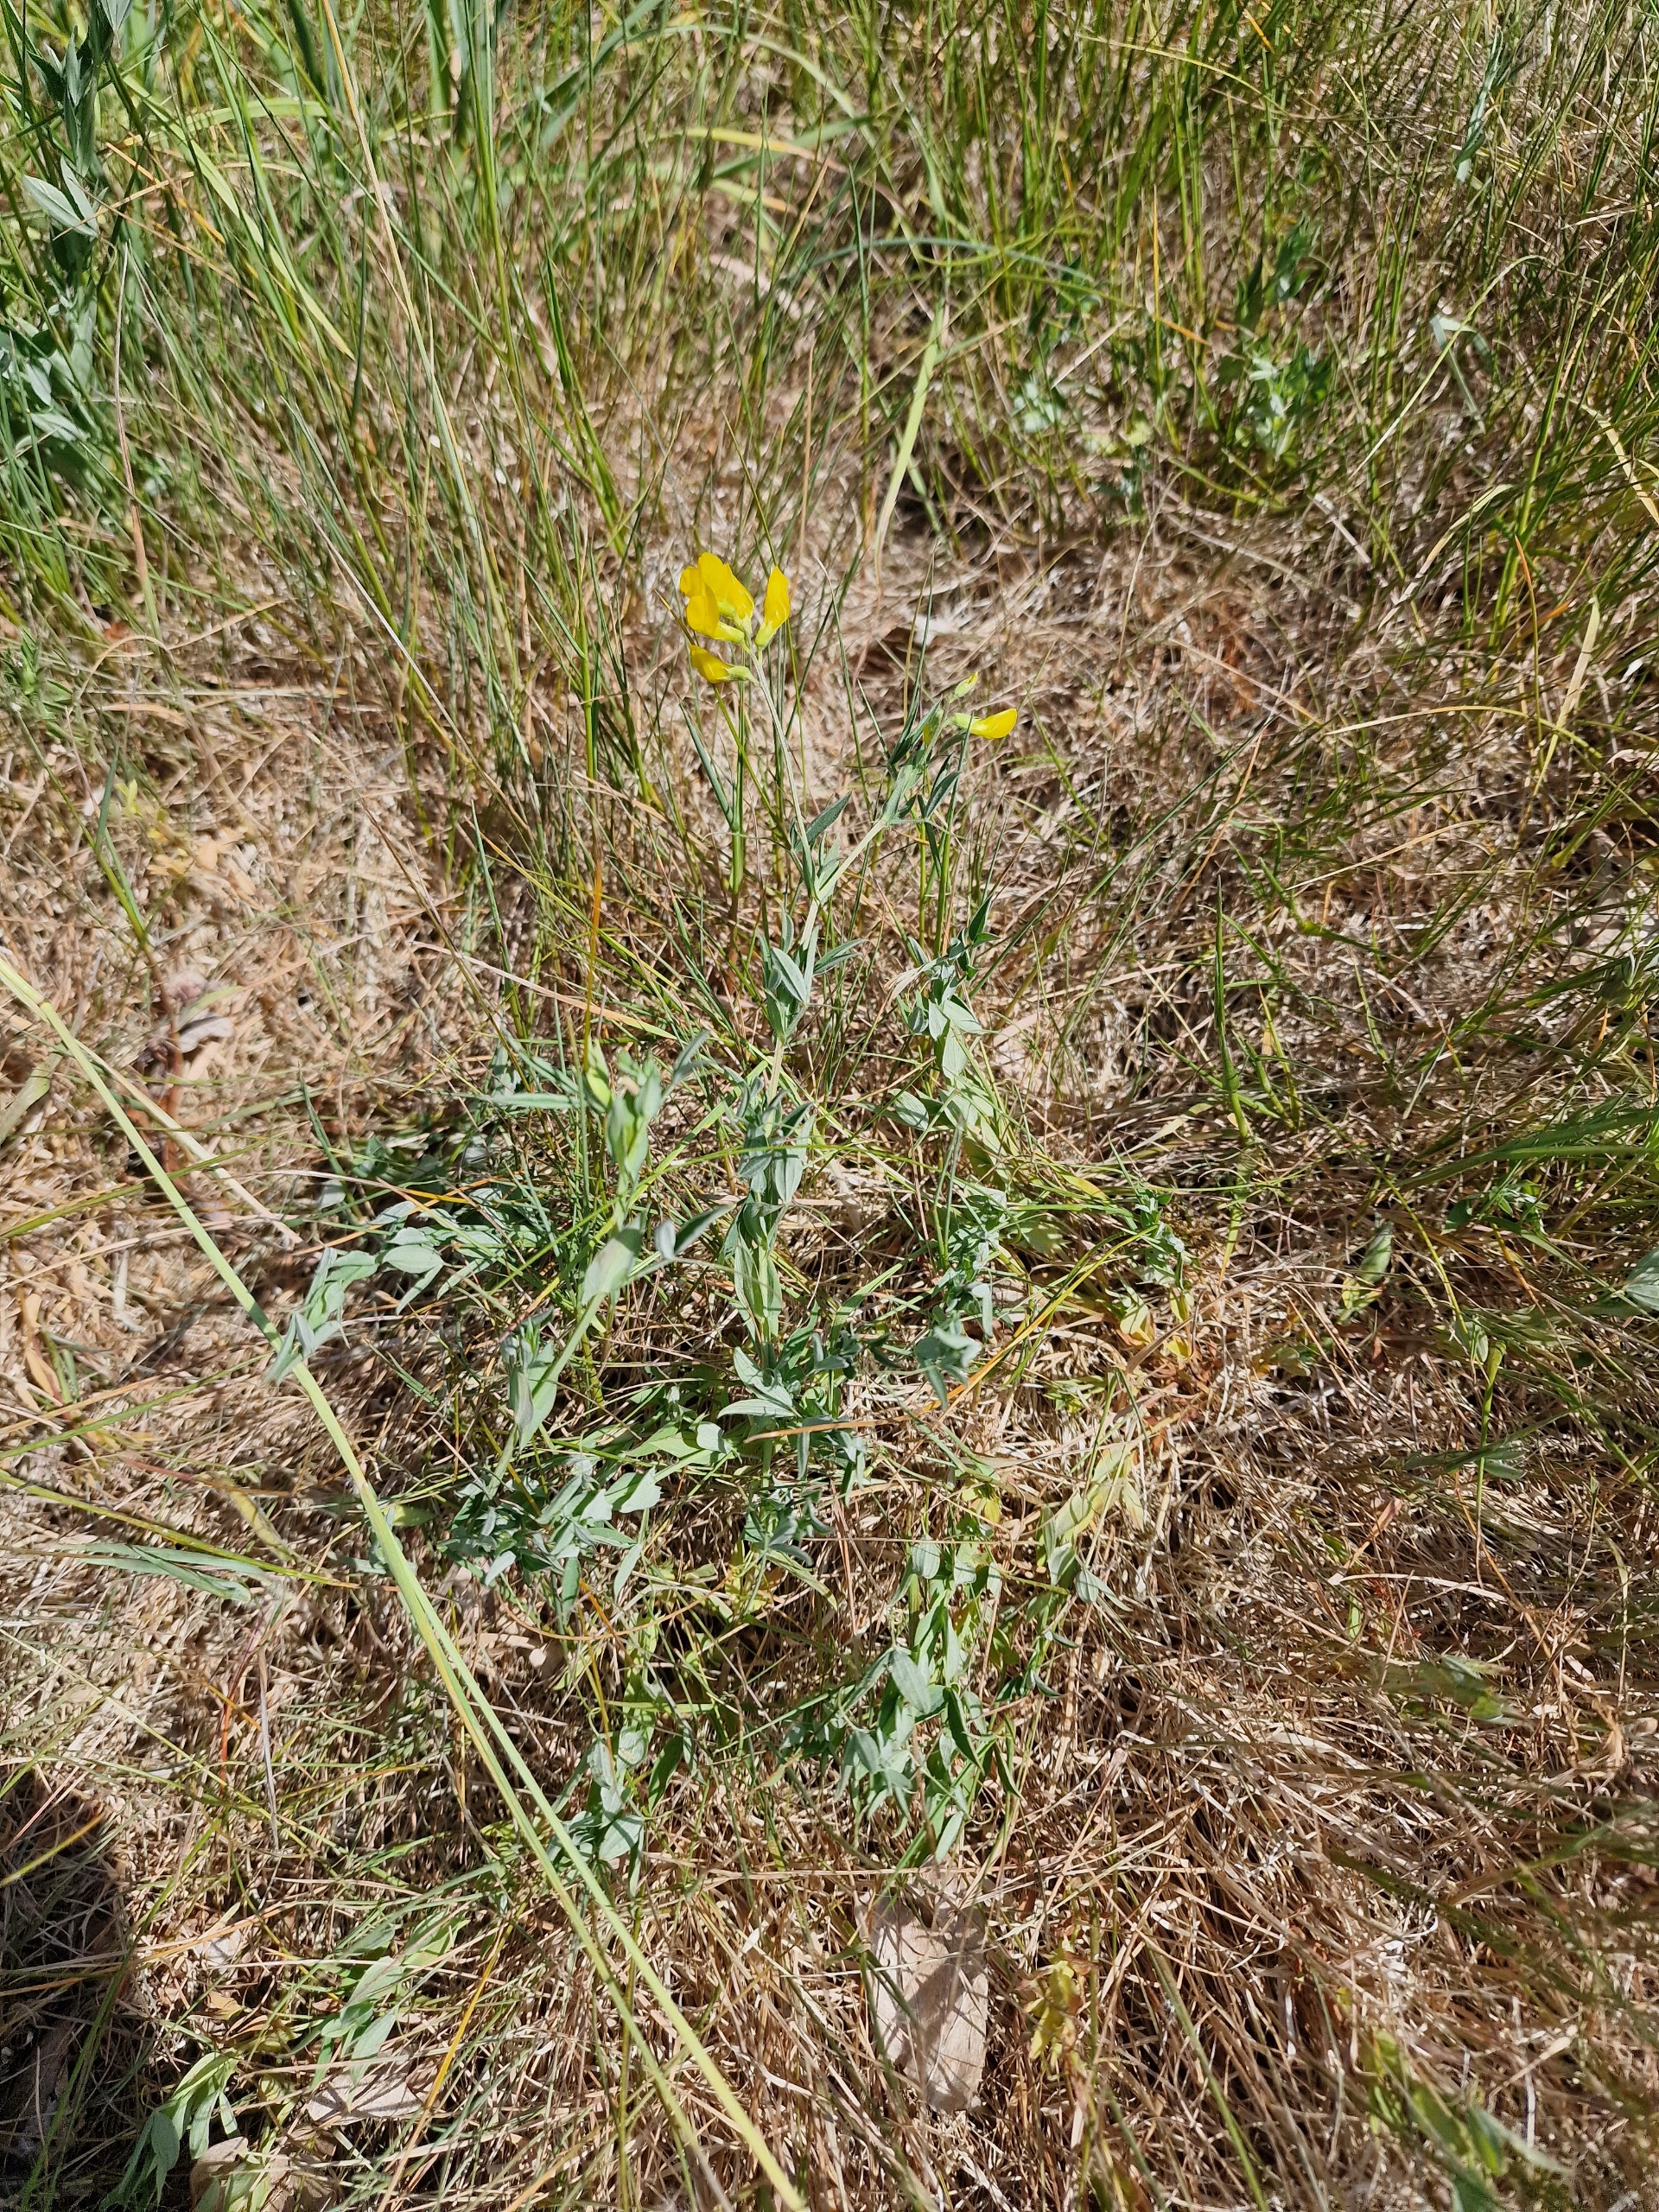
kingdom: Plantae
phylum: Tracheophyta
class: Magnoliopsida
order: Fabales
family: Fabaceae
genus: Lathyrus
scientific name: Lathyrus pratensis
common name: Gul fladbælg
